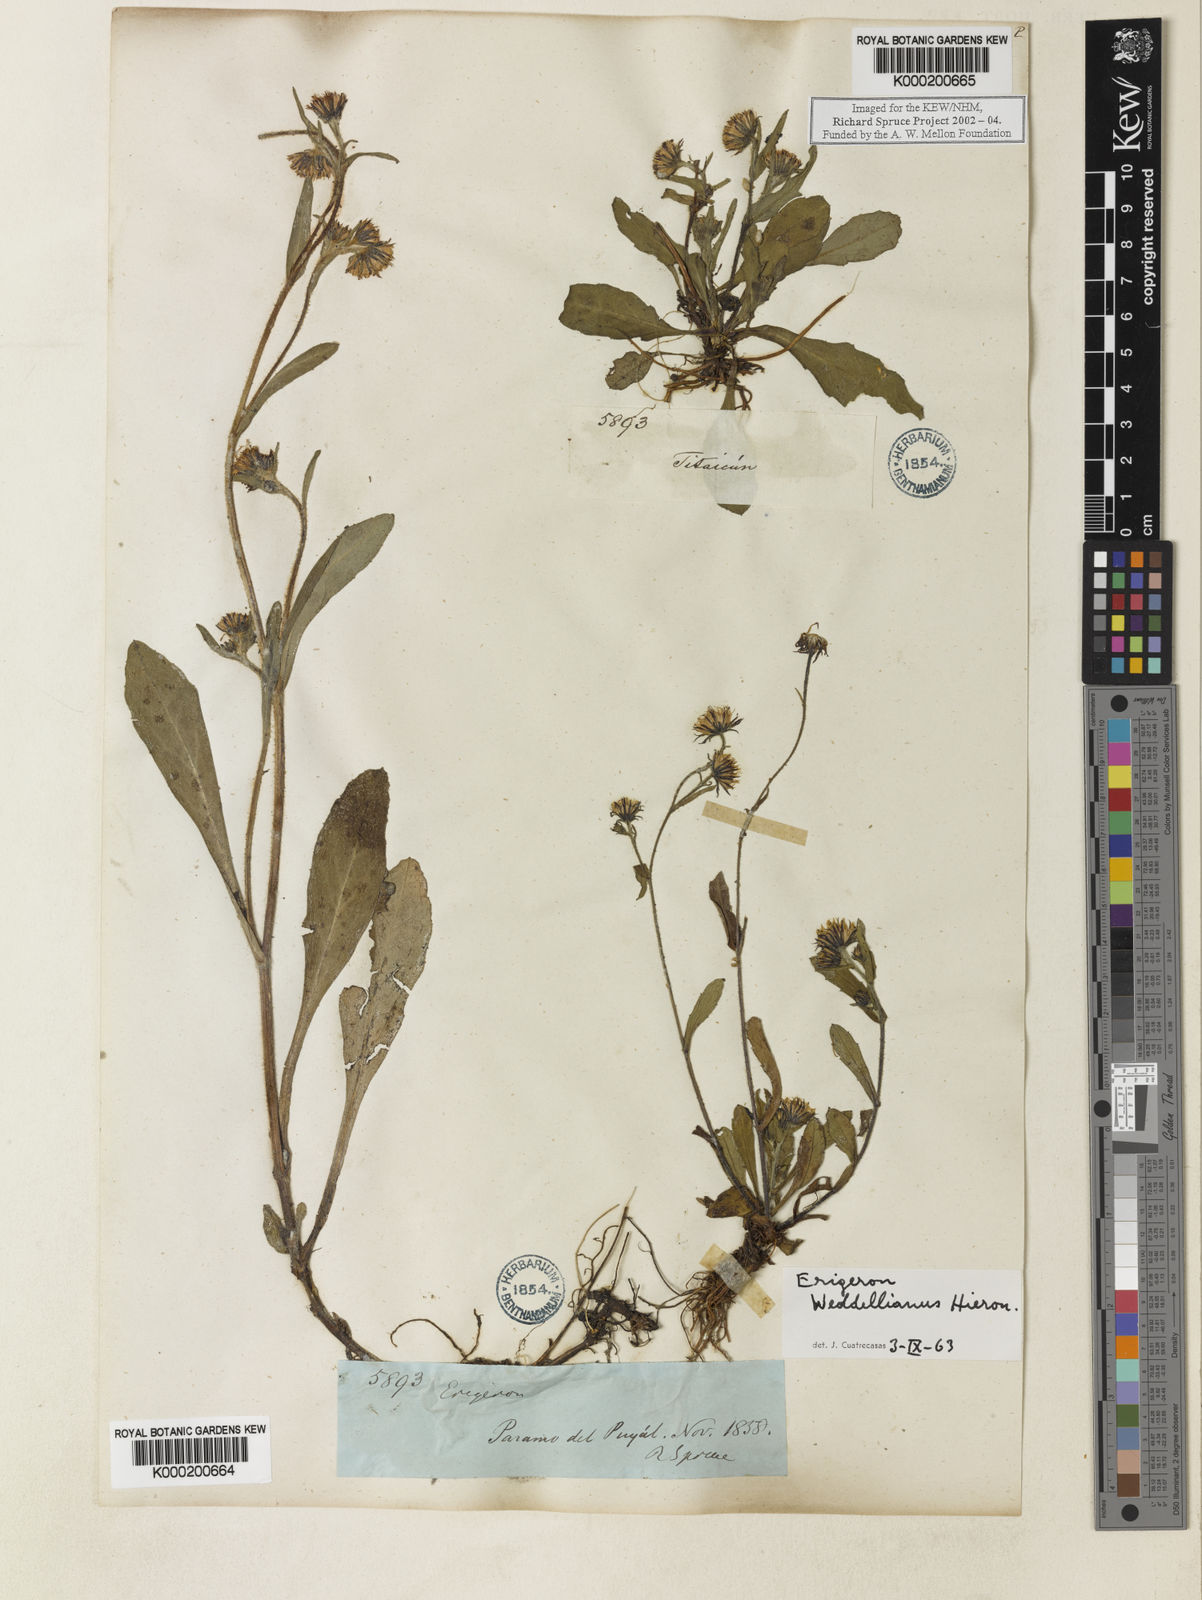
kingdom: Plantae
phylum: Tracheophyta
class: Magnoliopsida
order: Asterales
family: Asteraceae
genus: Erigeron
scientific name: Erigeron ecuadoriensis
